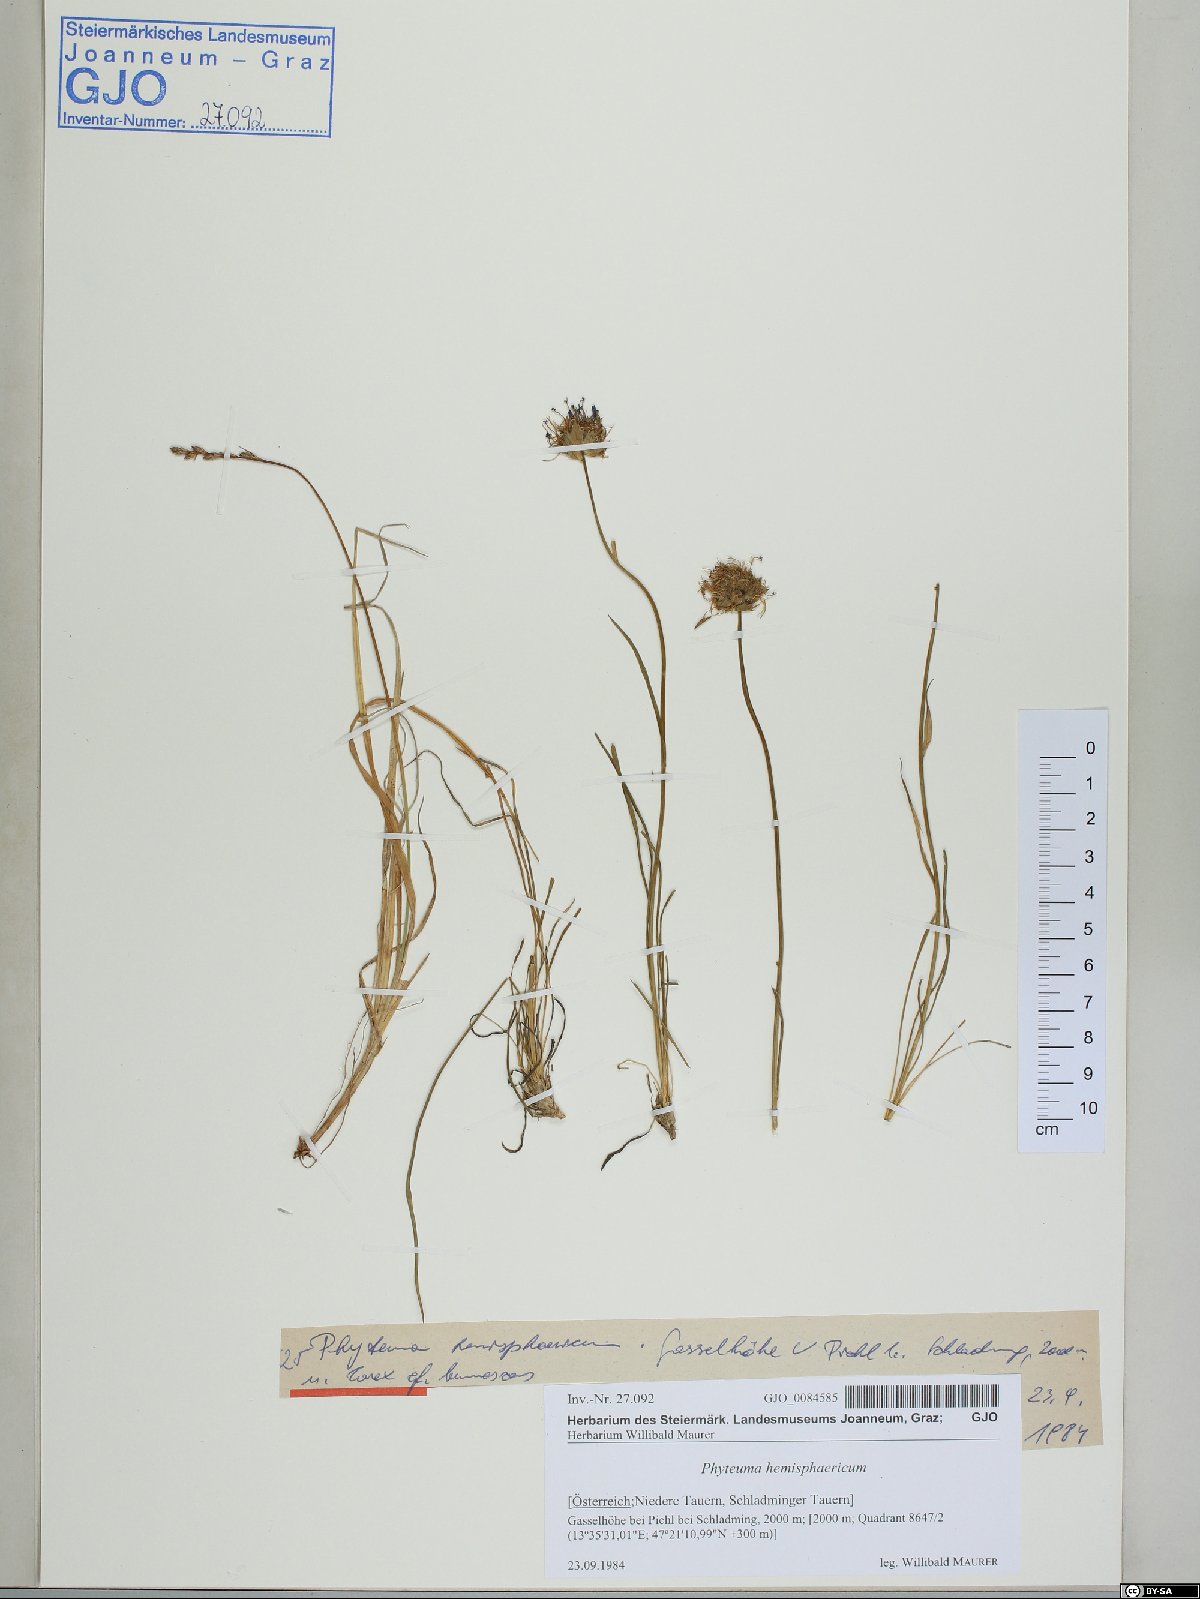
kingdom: Plantae
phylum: Tracheophyta
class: Magnoliopsida
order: Asterales
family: Campanulaceae
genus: Phyteuma
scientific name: Phyteuma hemisphaericum
